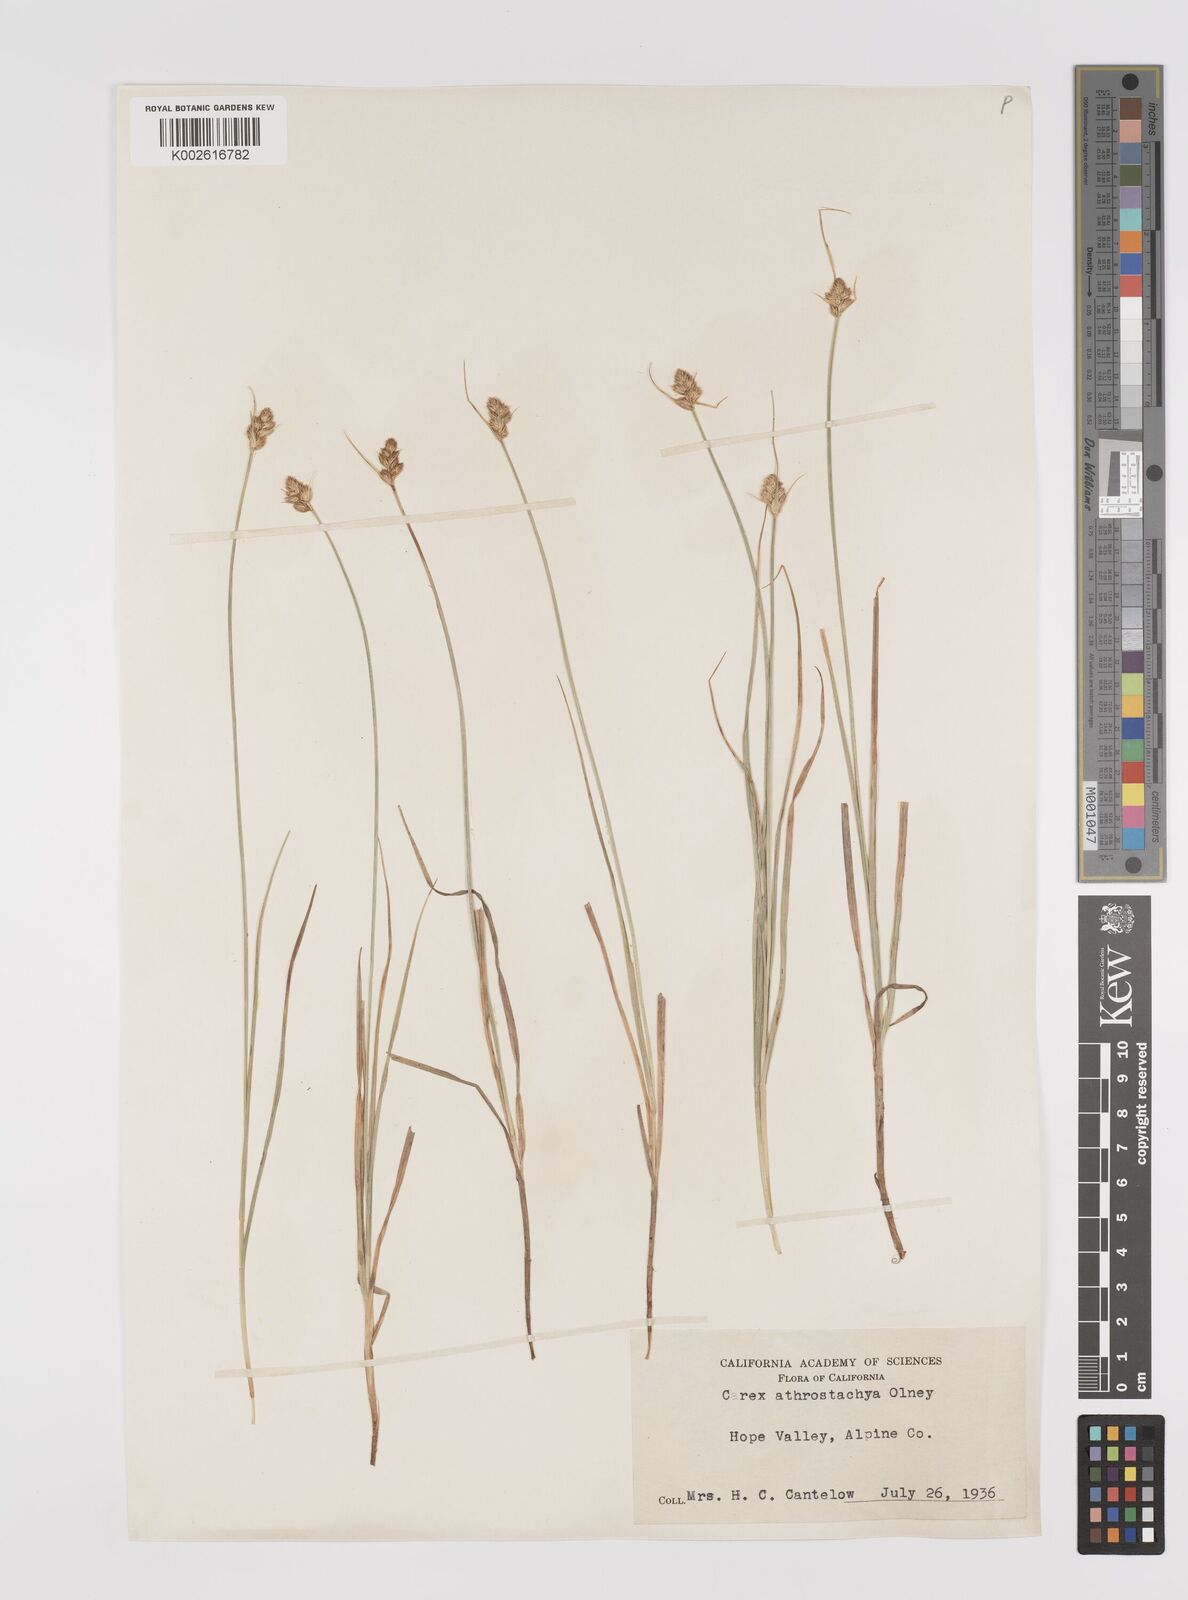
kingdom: Plantae
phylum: Tracheophyta
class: Liliopsida
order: Poales
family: Cyperaceae
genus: Carex
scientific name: Carex athrostachya
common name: Slenderbeak sedge
